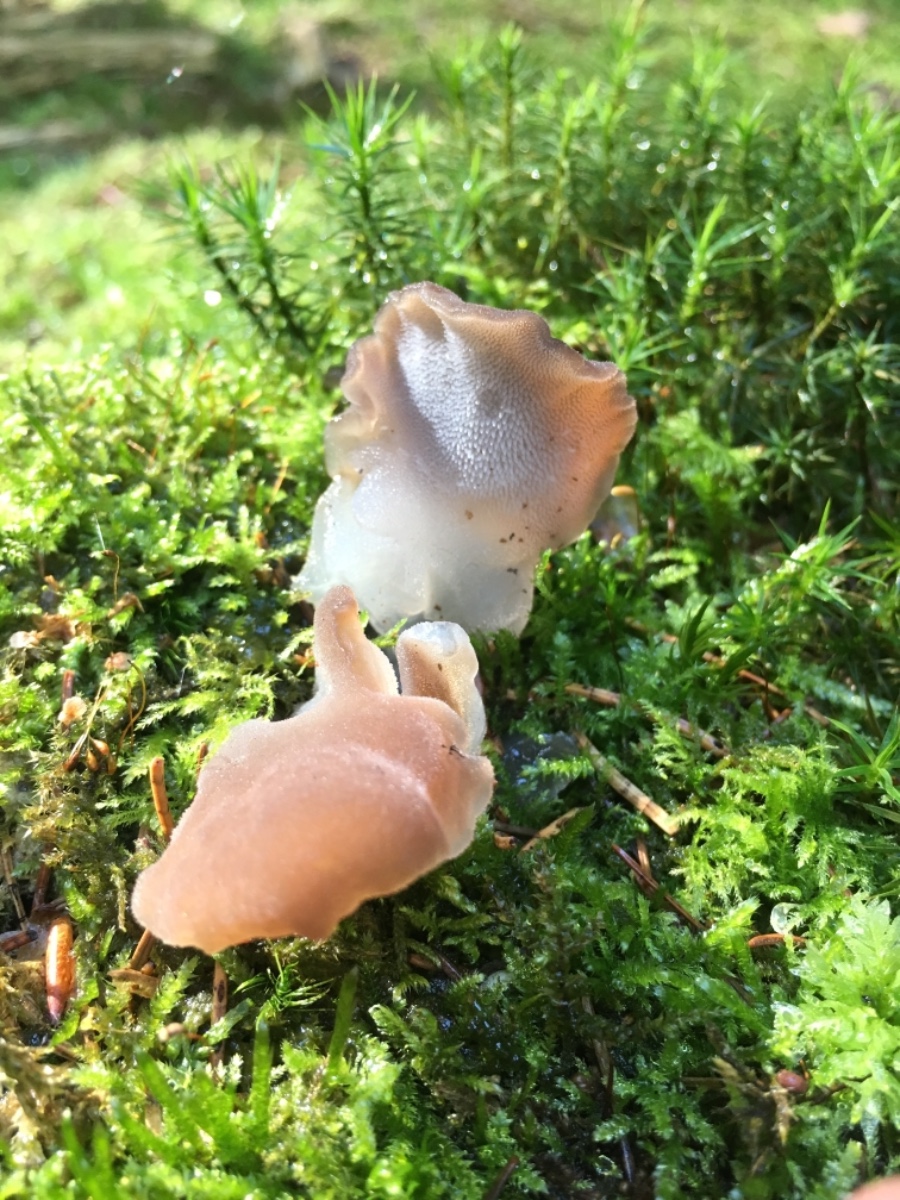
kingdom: Fungi
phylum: Basidiomycota
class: Agaricomycetes
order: Auriculariales
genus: Pseudohydnum
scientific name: Pseudohydnum gelatinosum
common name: bævretand
